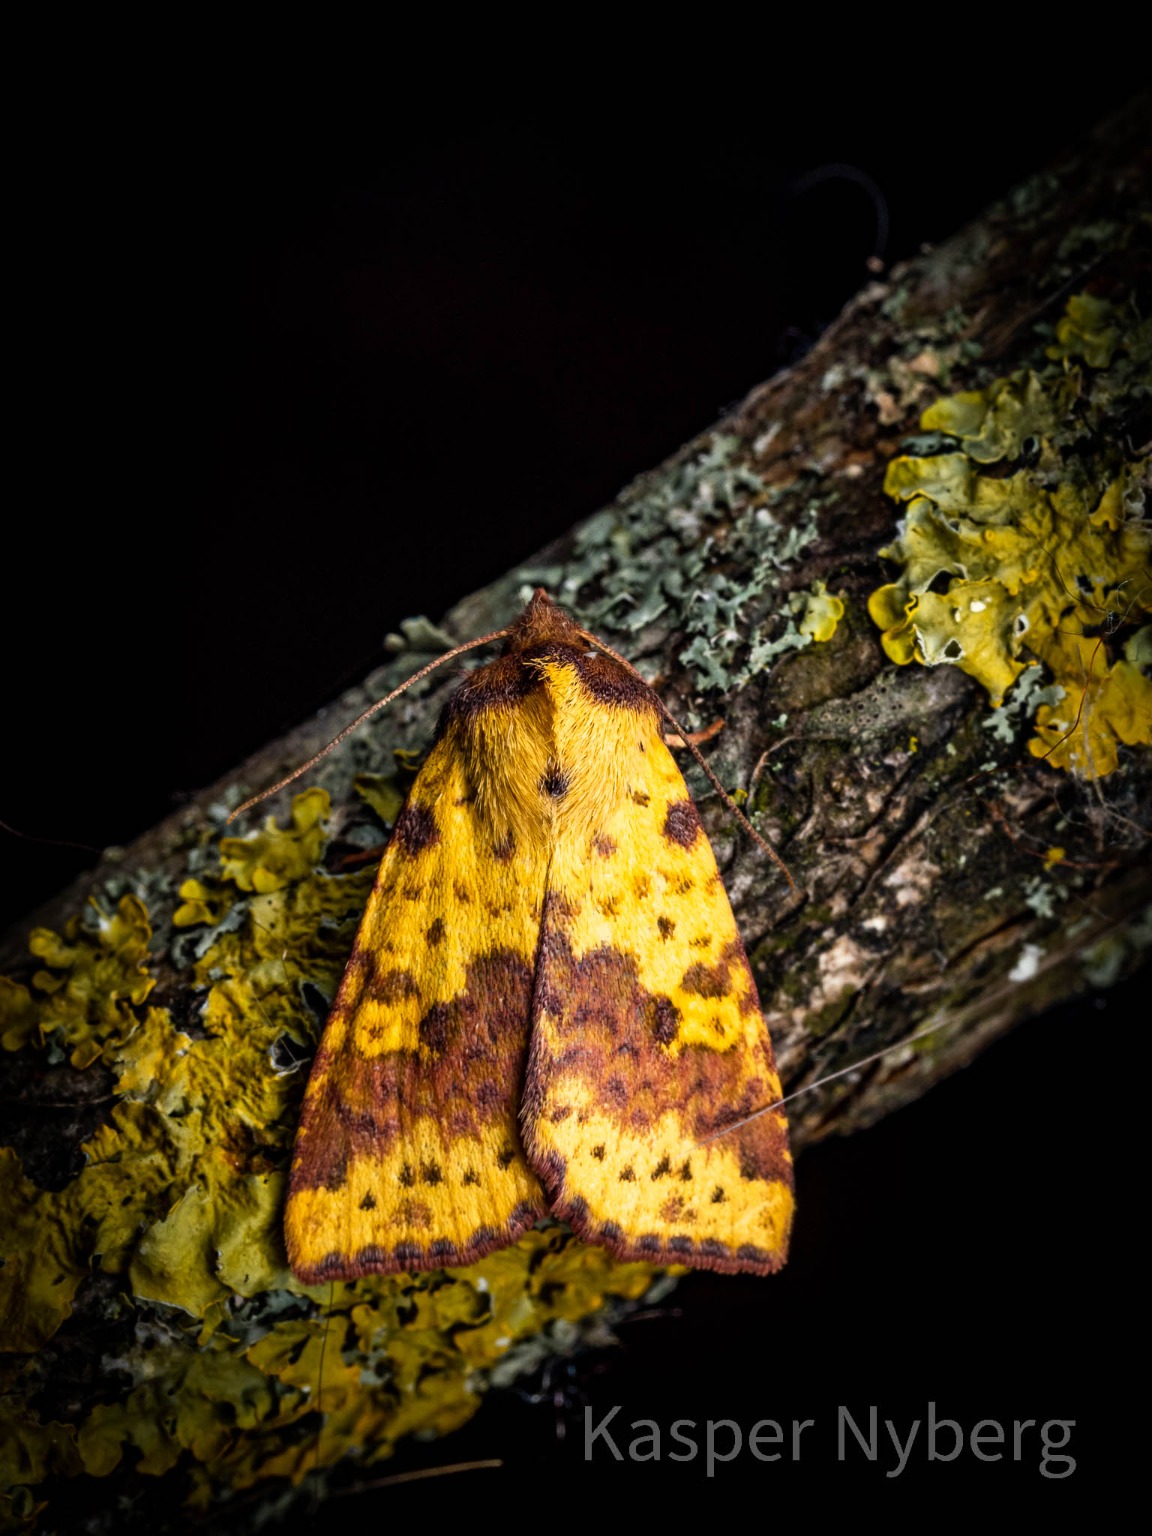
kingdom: Animalia
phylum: Arthropoda
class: Insecta
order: Lepidoptera
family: Noctuidae
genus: Xanthia
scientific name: Xanthia togata
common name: Toga-septemberugle
